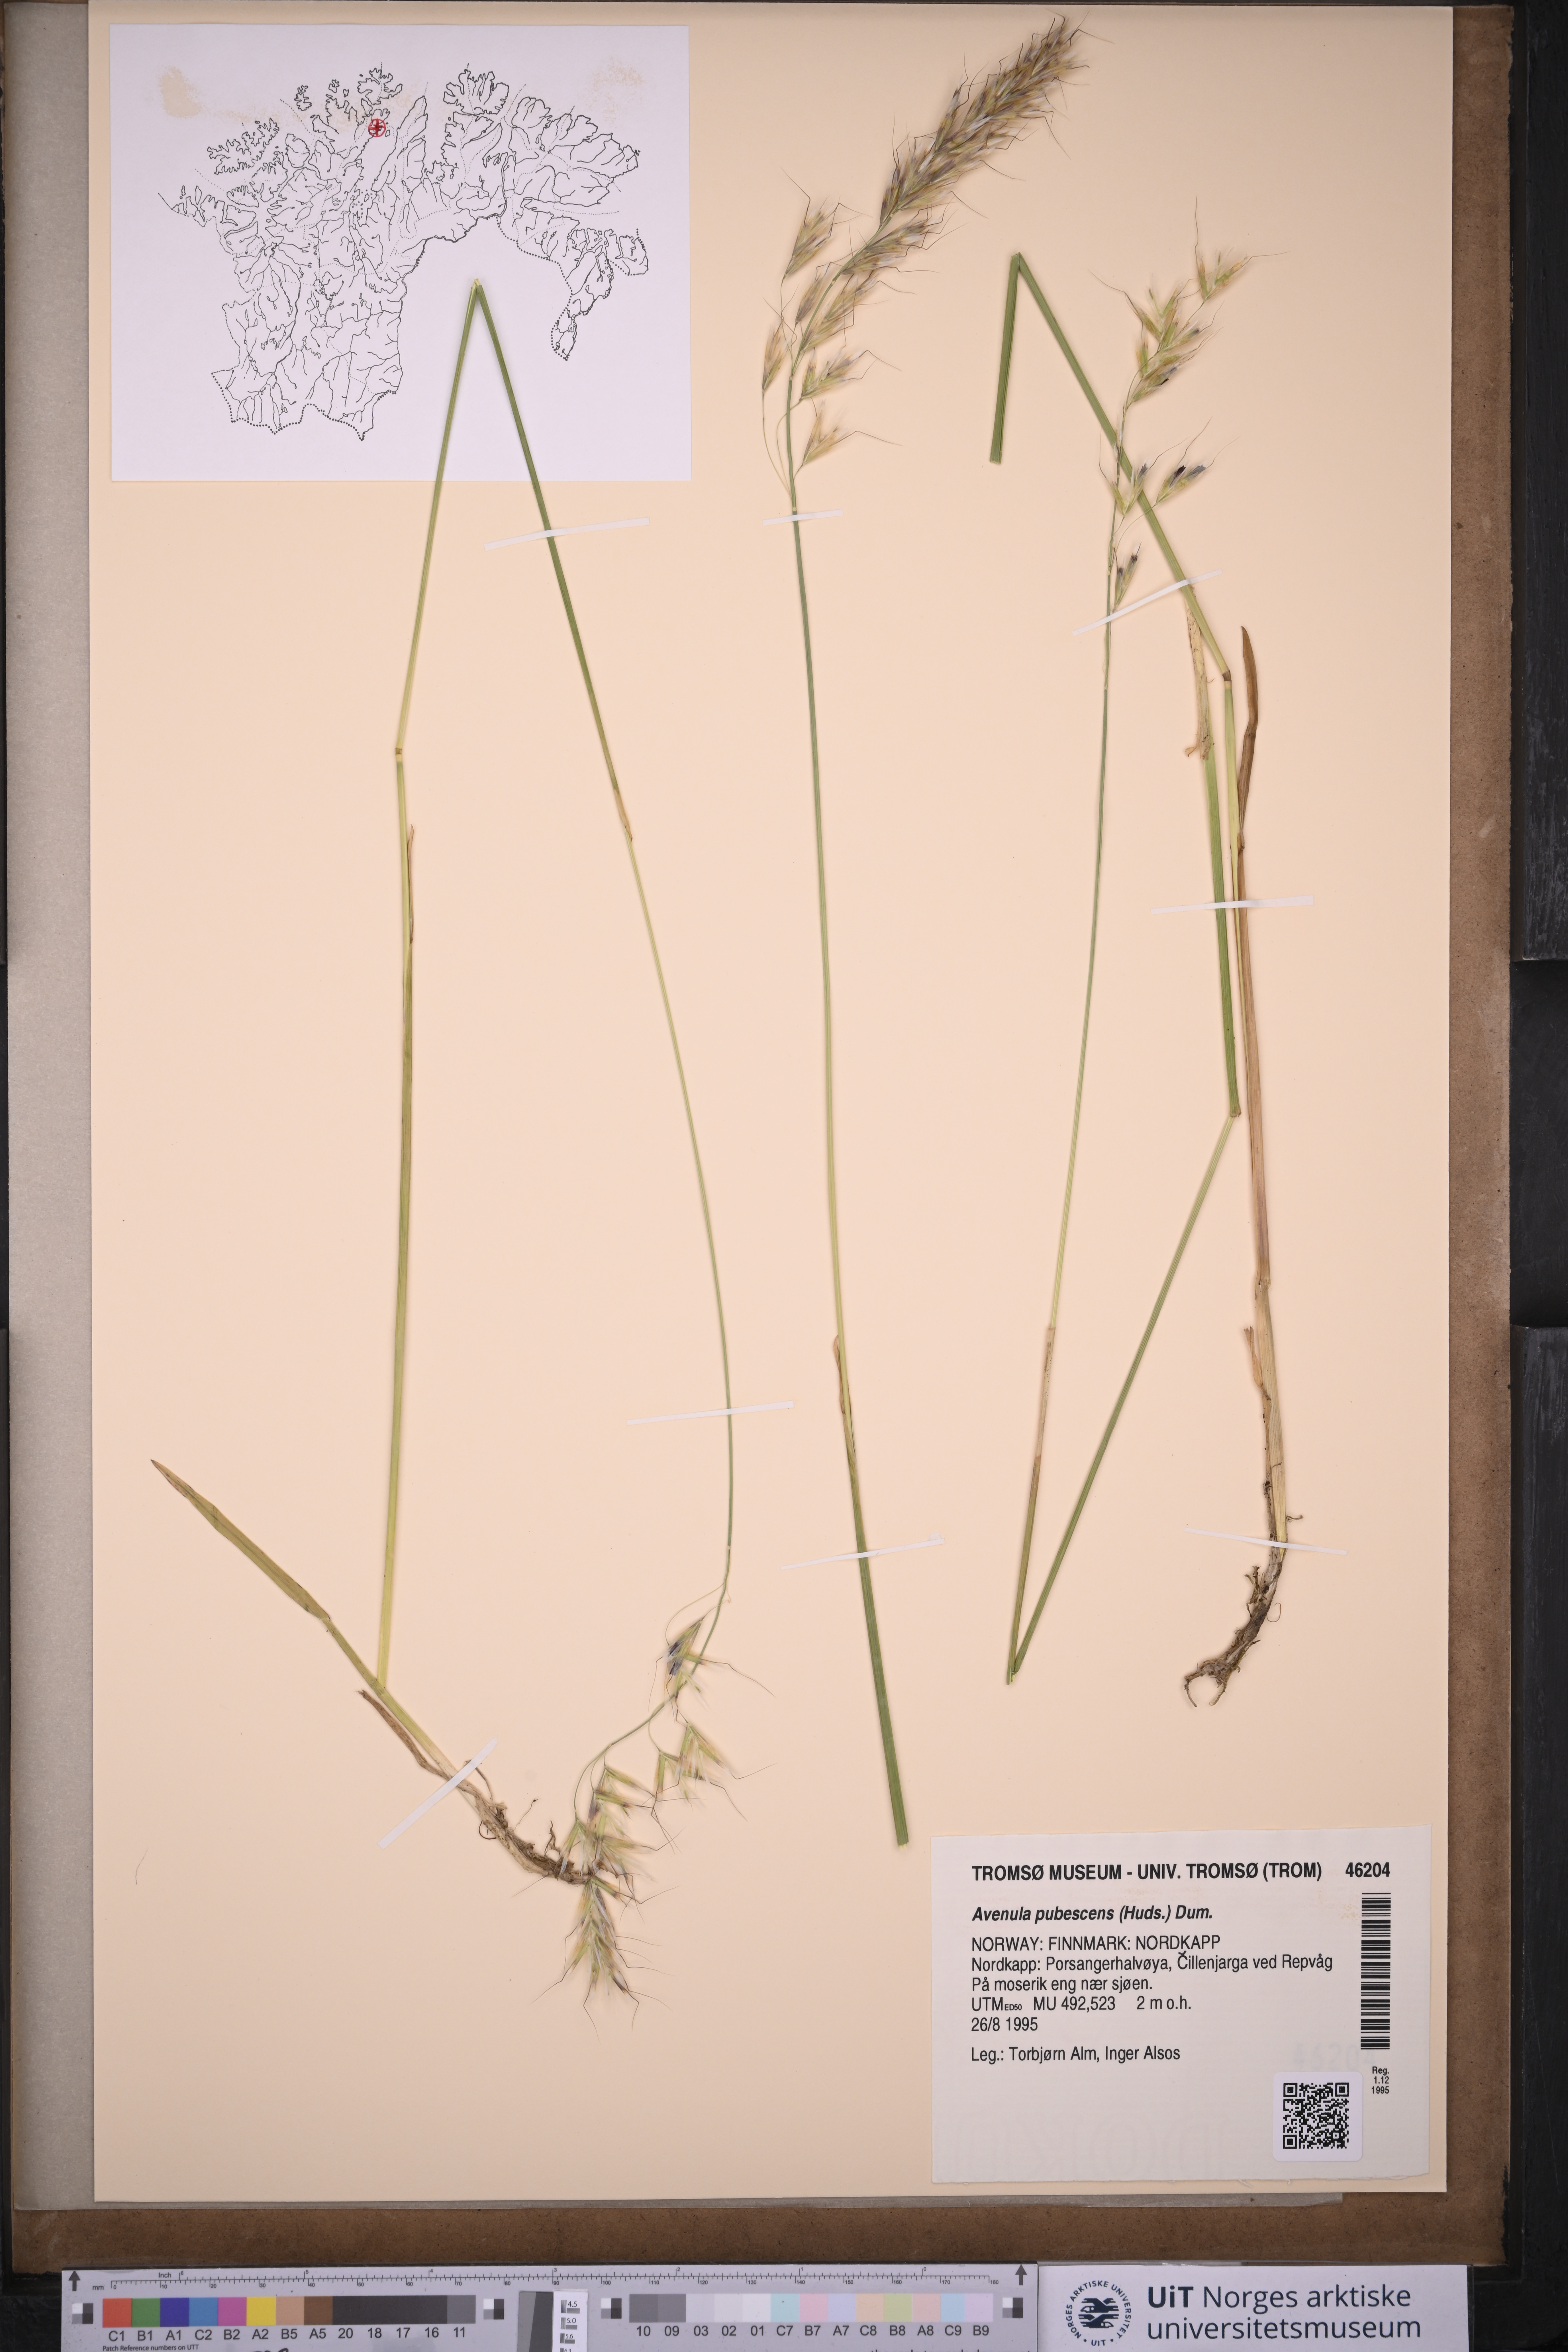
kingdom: Plantae
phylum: Tracheophyta
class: Liliopsida
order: Poales
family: Poaceae
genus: Avenula
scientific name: Avenula pubescens
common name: Downy alpine oatgrass
